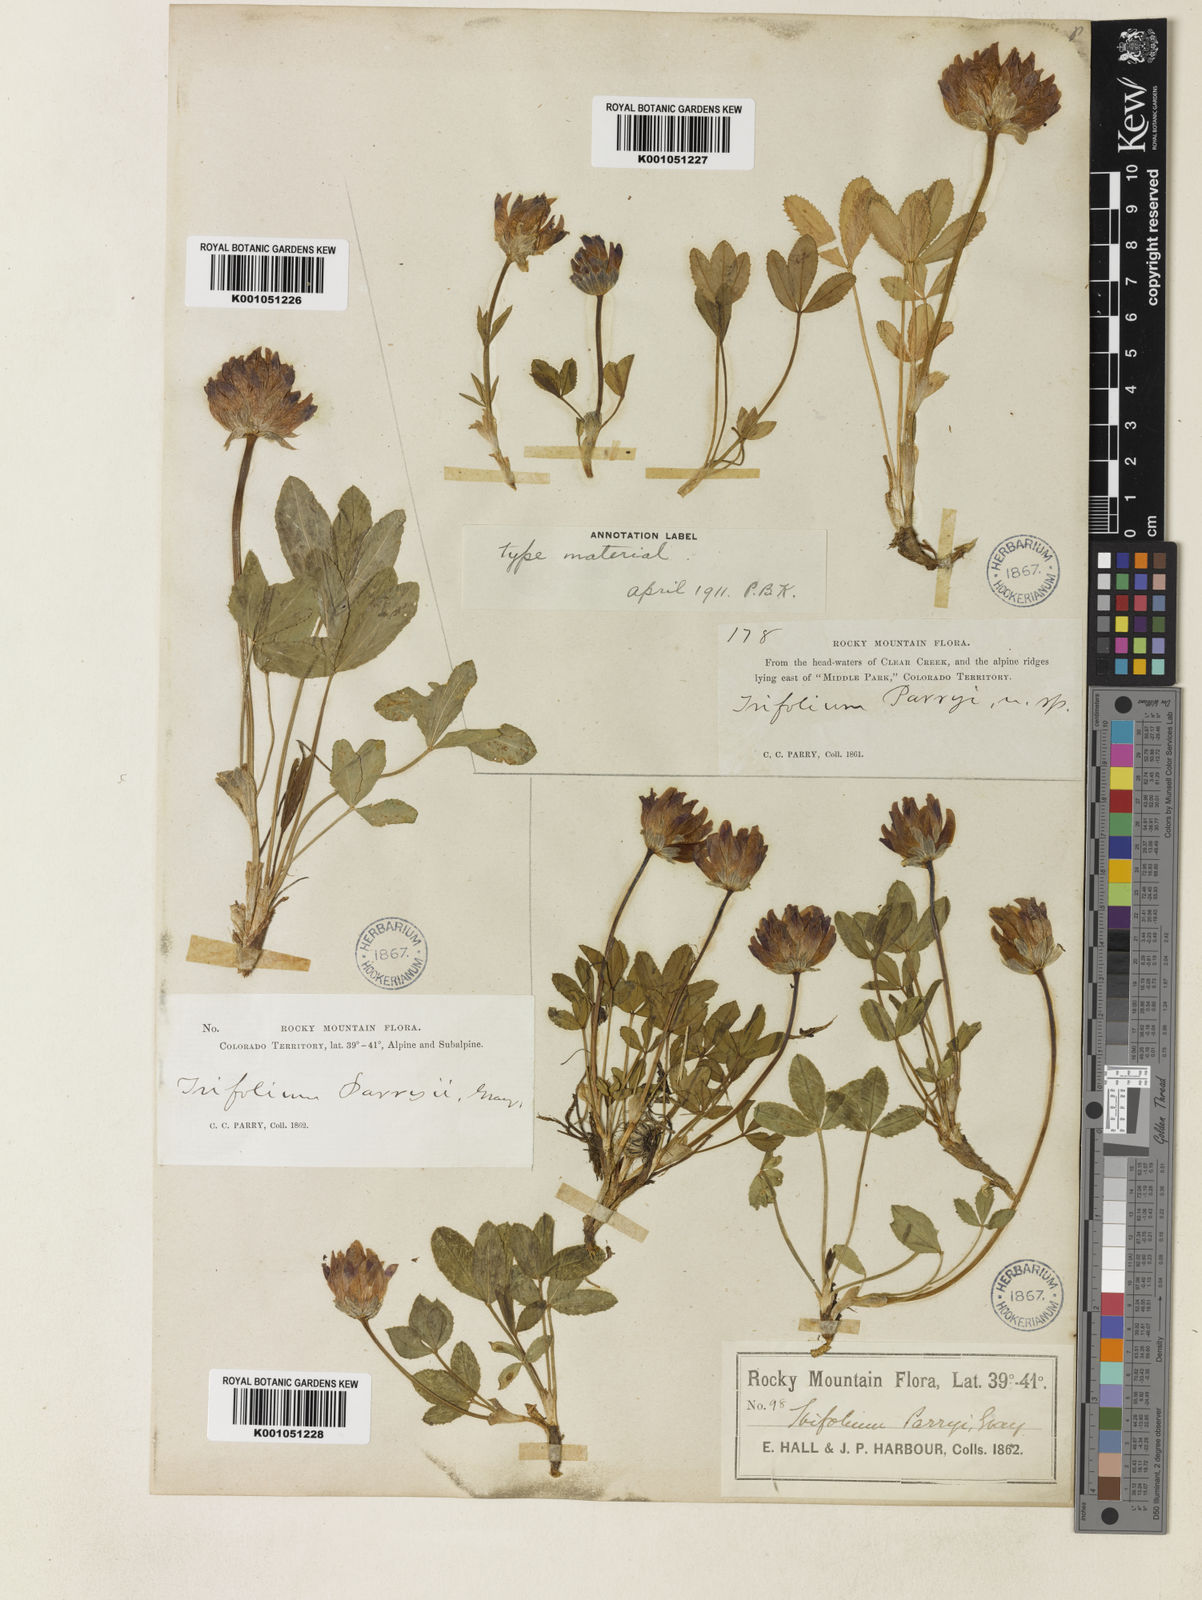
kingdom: Plantae
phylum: Tracheophyta
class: Magnoliopsida
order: Fabales
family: Fabaceae
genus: Trifolium
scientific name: Trifolium parryi
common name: Parry's clover
